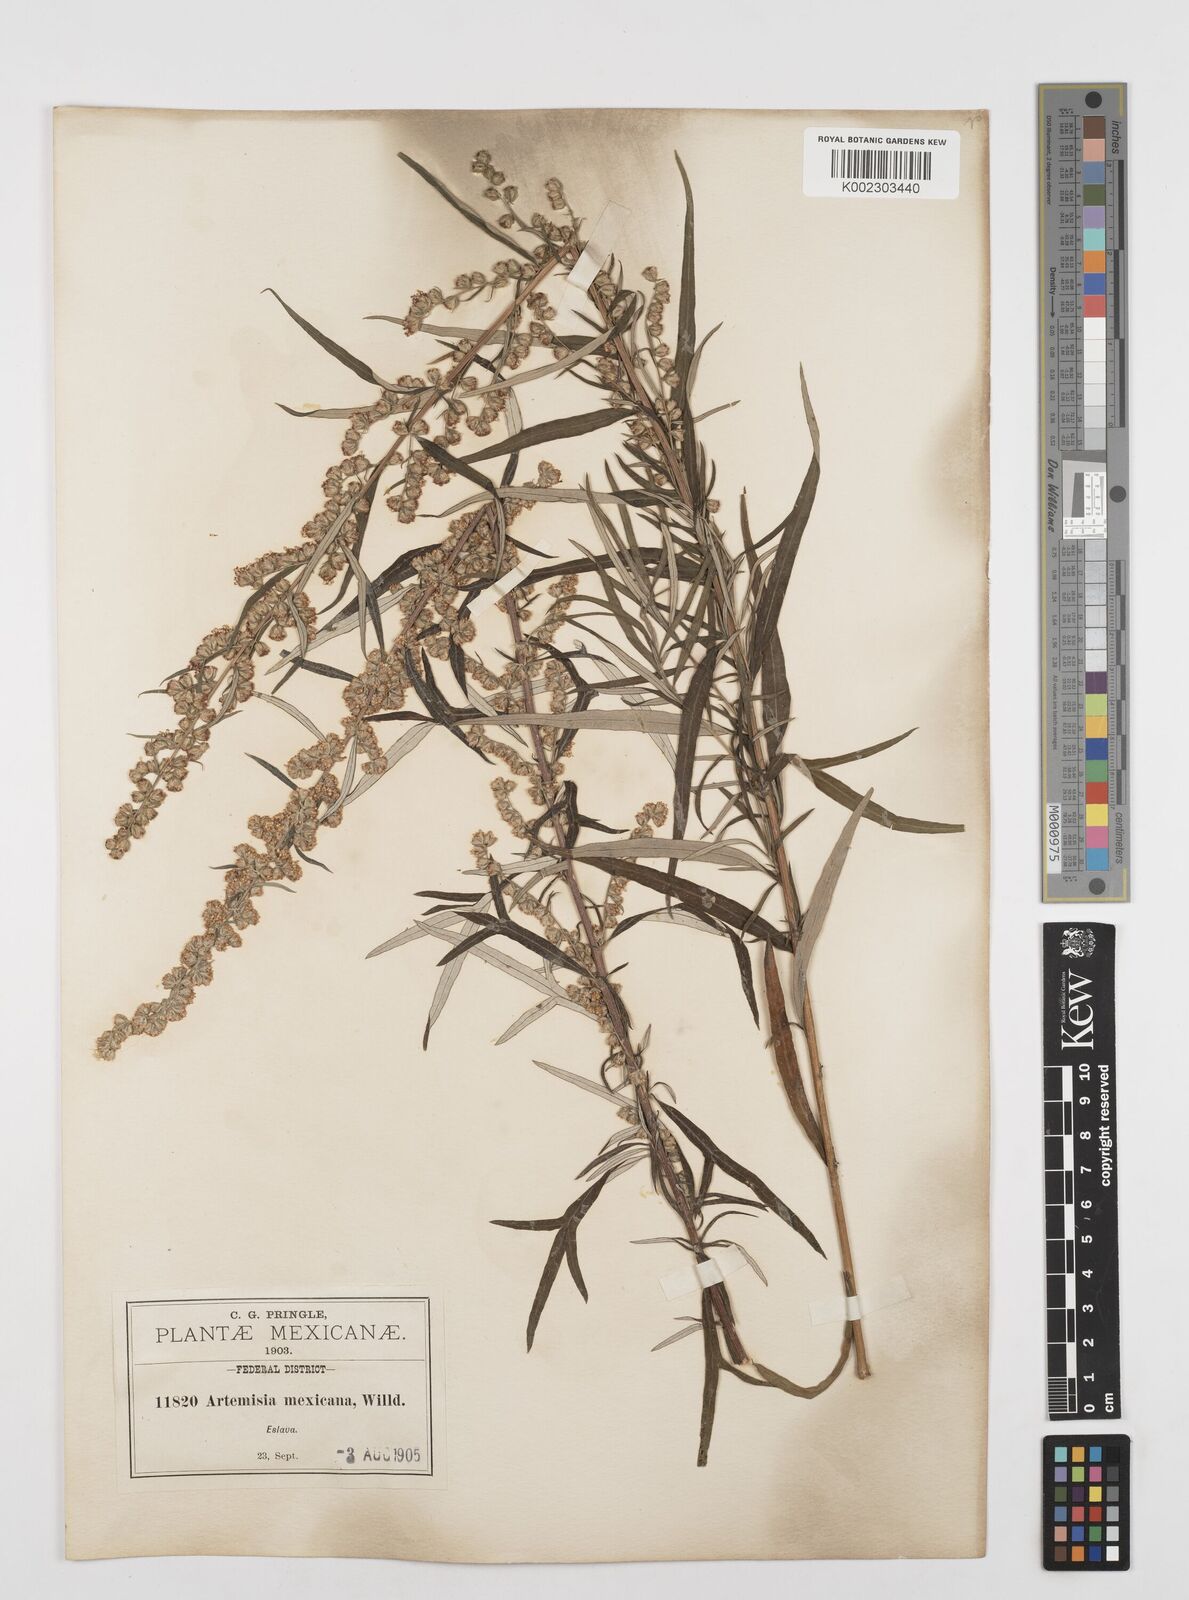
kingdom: Plantae
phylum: Tracheophyta
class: Magnoliopsida
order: Asterales
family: Asteraceae
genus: Artemisia
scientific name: Artemisia ludoviciana
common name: Western mugwort
